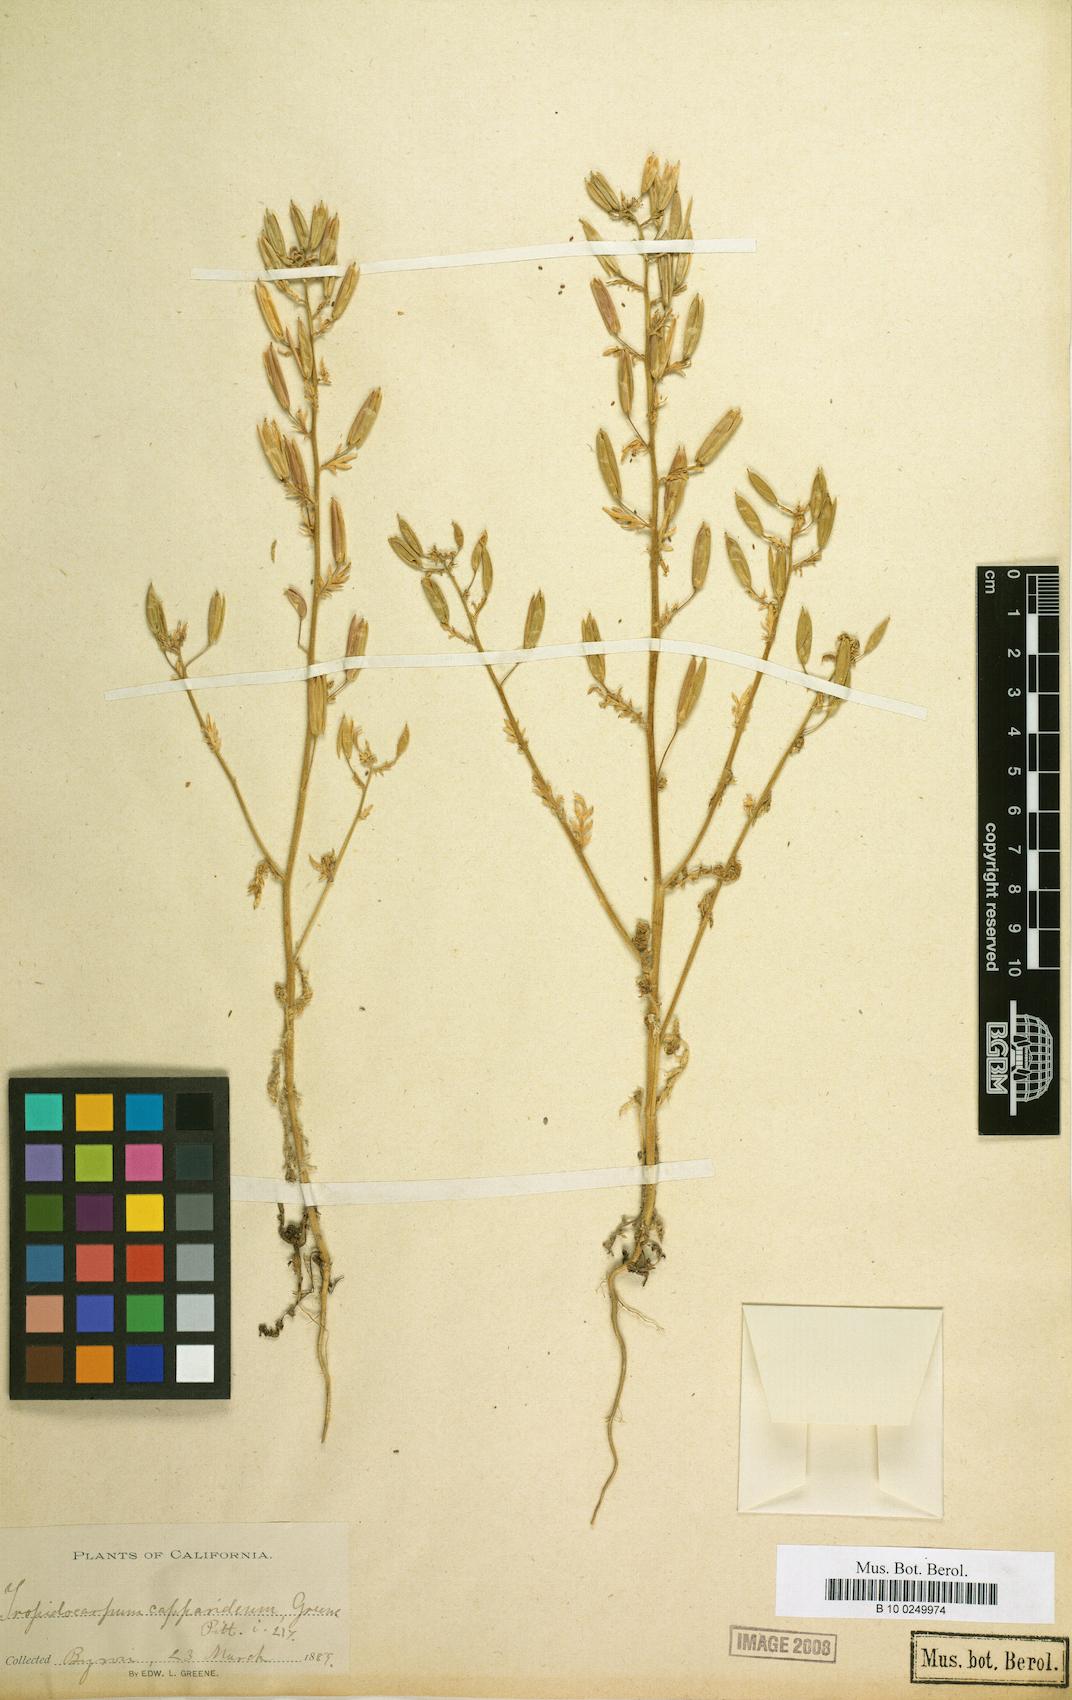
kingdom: Plantae
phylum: Tracheophyta
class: Magnoliopsida
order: Brassicales
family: Brassicaceae
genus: Tropidocarpum
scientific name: Tropidocarpum capparideum
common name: Caper-fruit tropidocarpum
